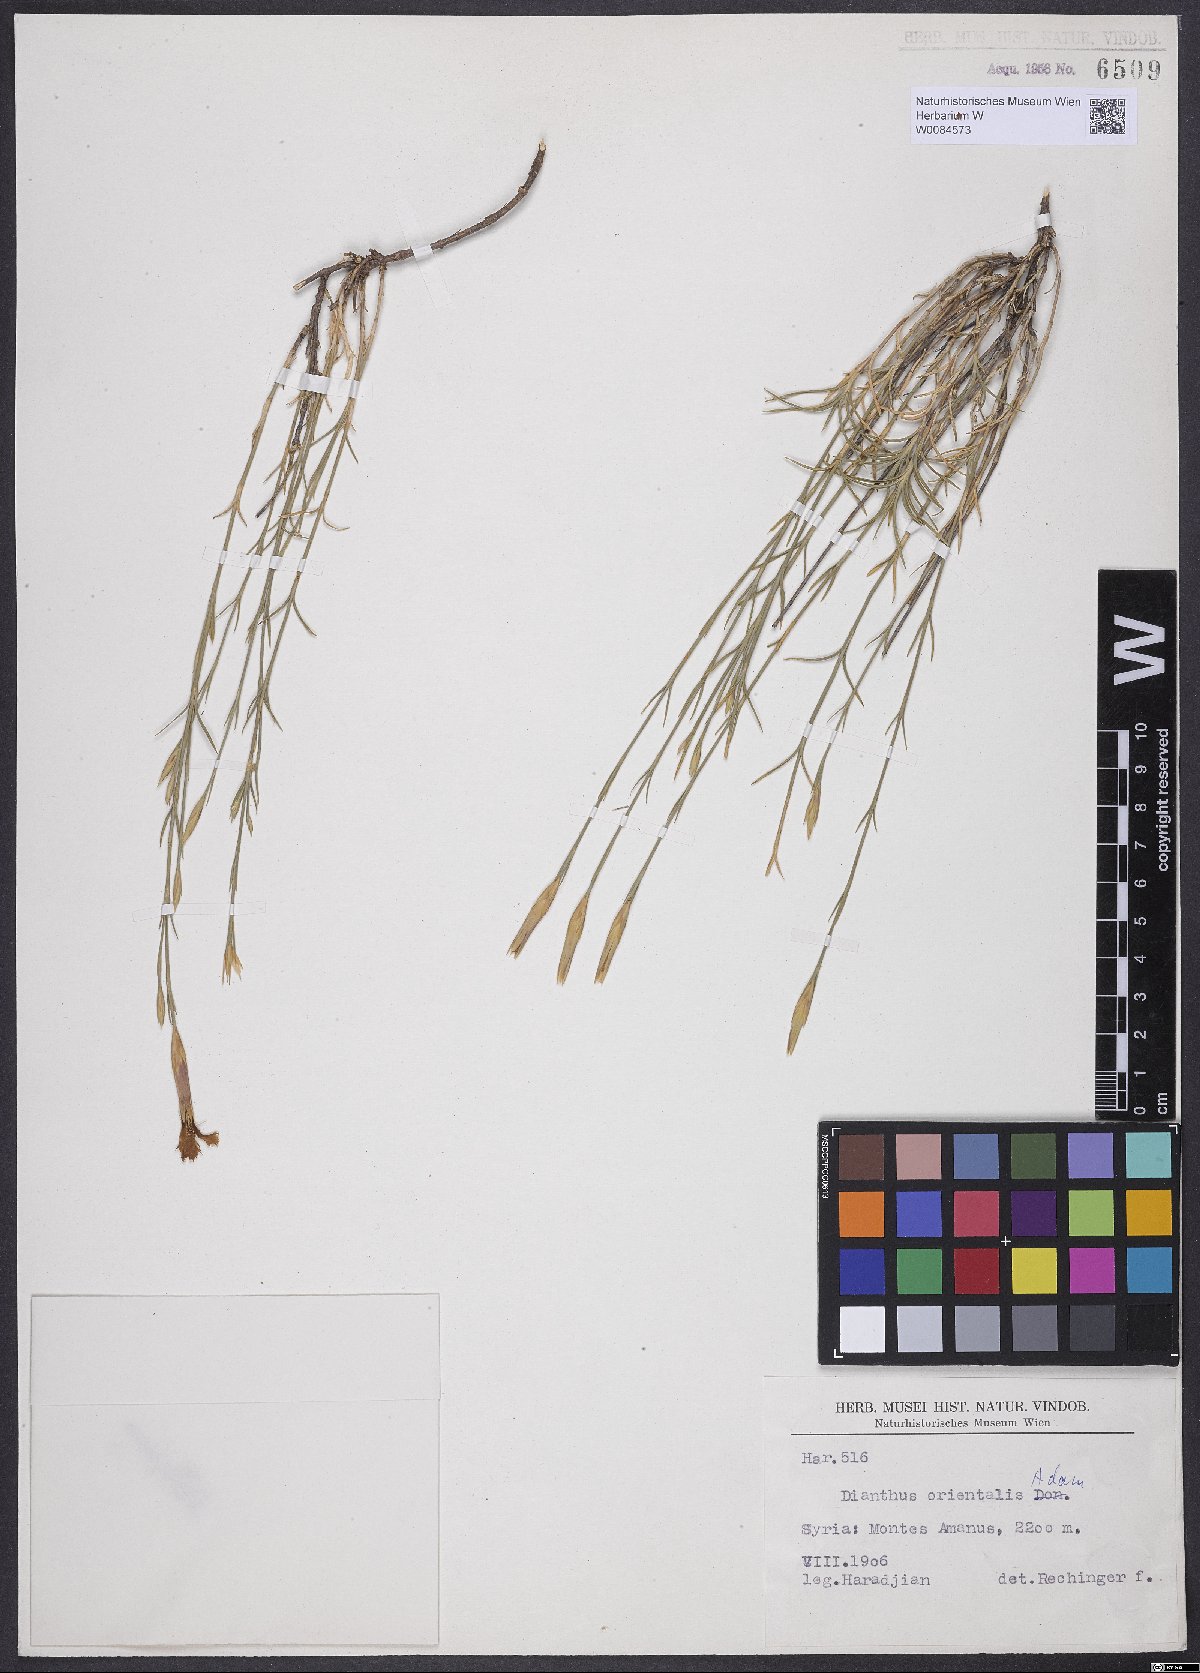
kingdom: Plantae
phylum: Tracheophyta
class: Magnoliopsida
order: Caryophyllales
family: Caryophyllaceae
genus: Dianthus
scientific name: Dianthus orientalis
